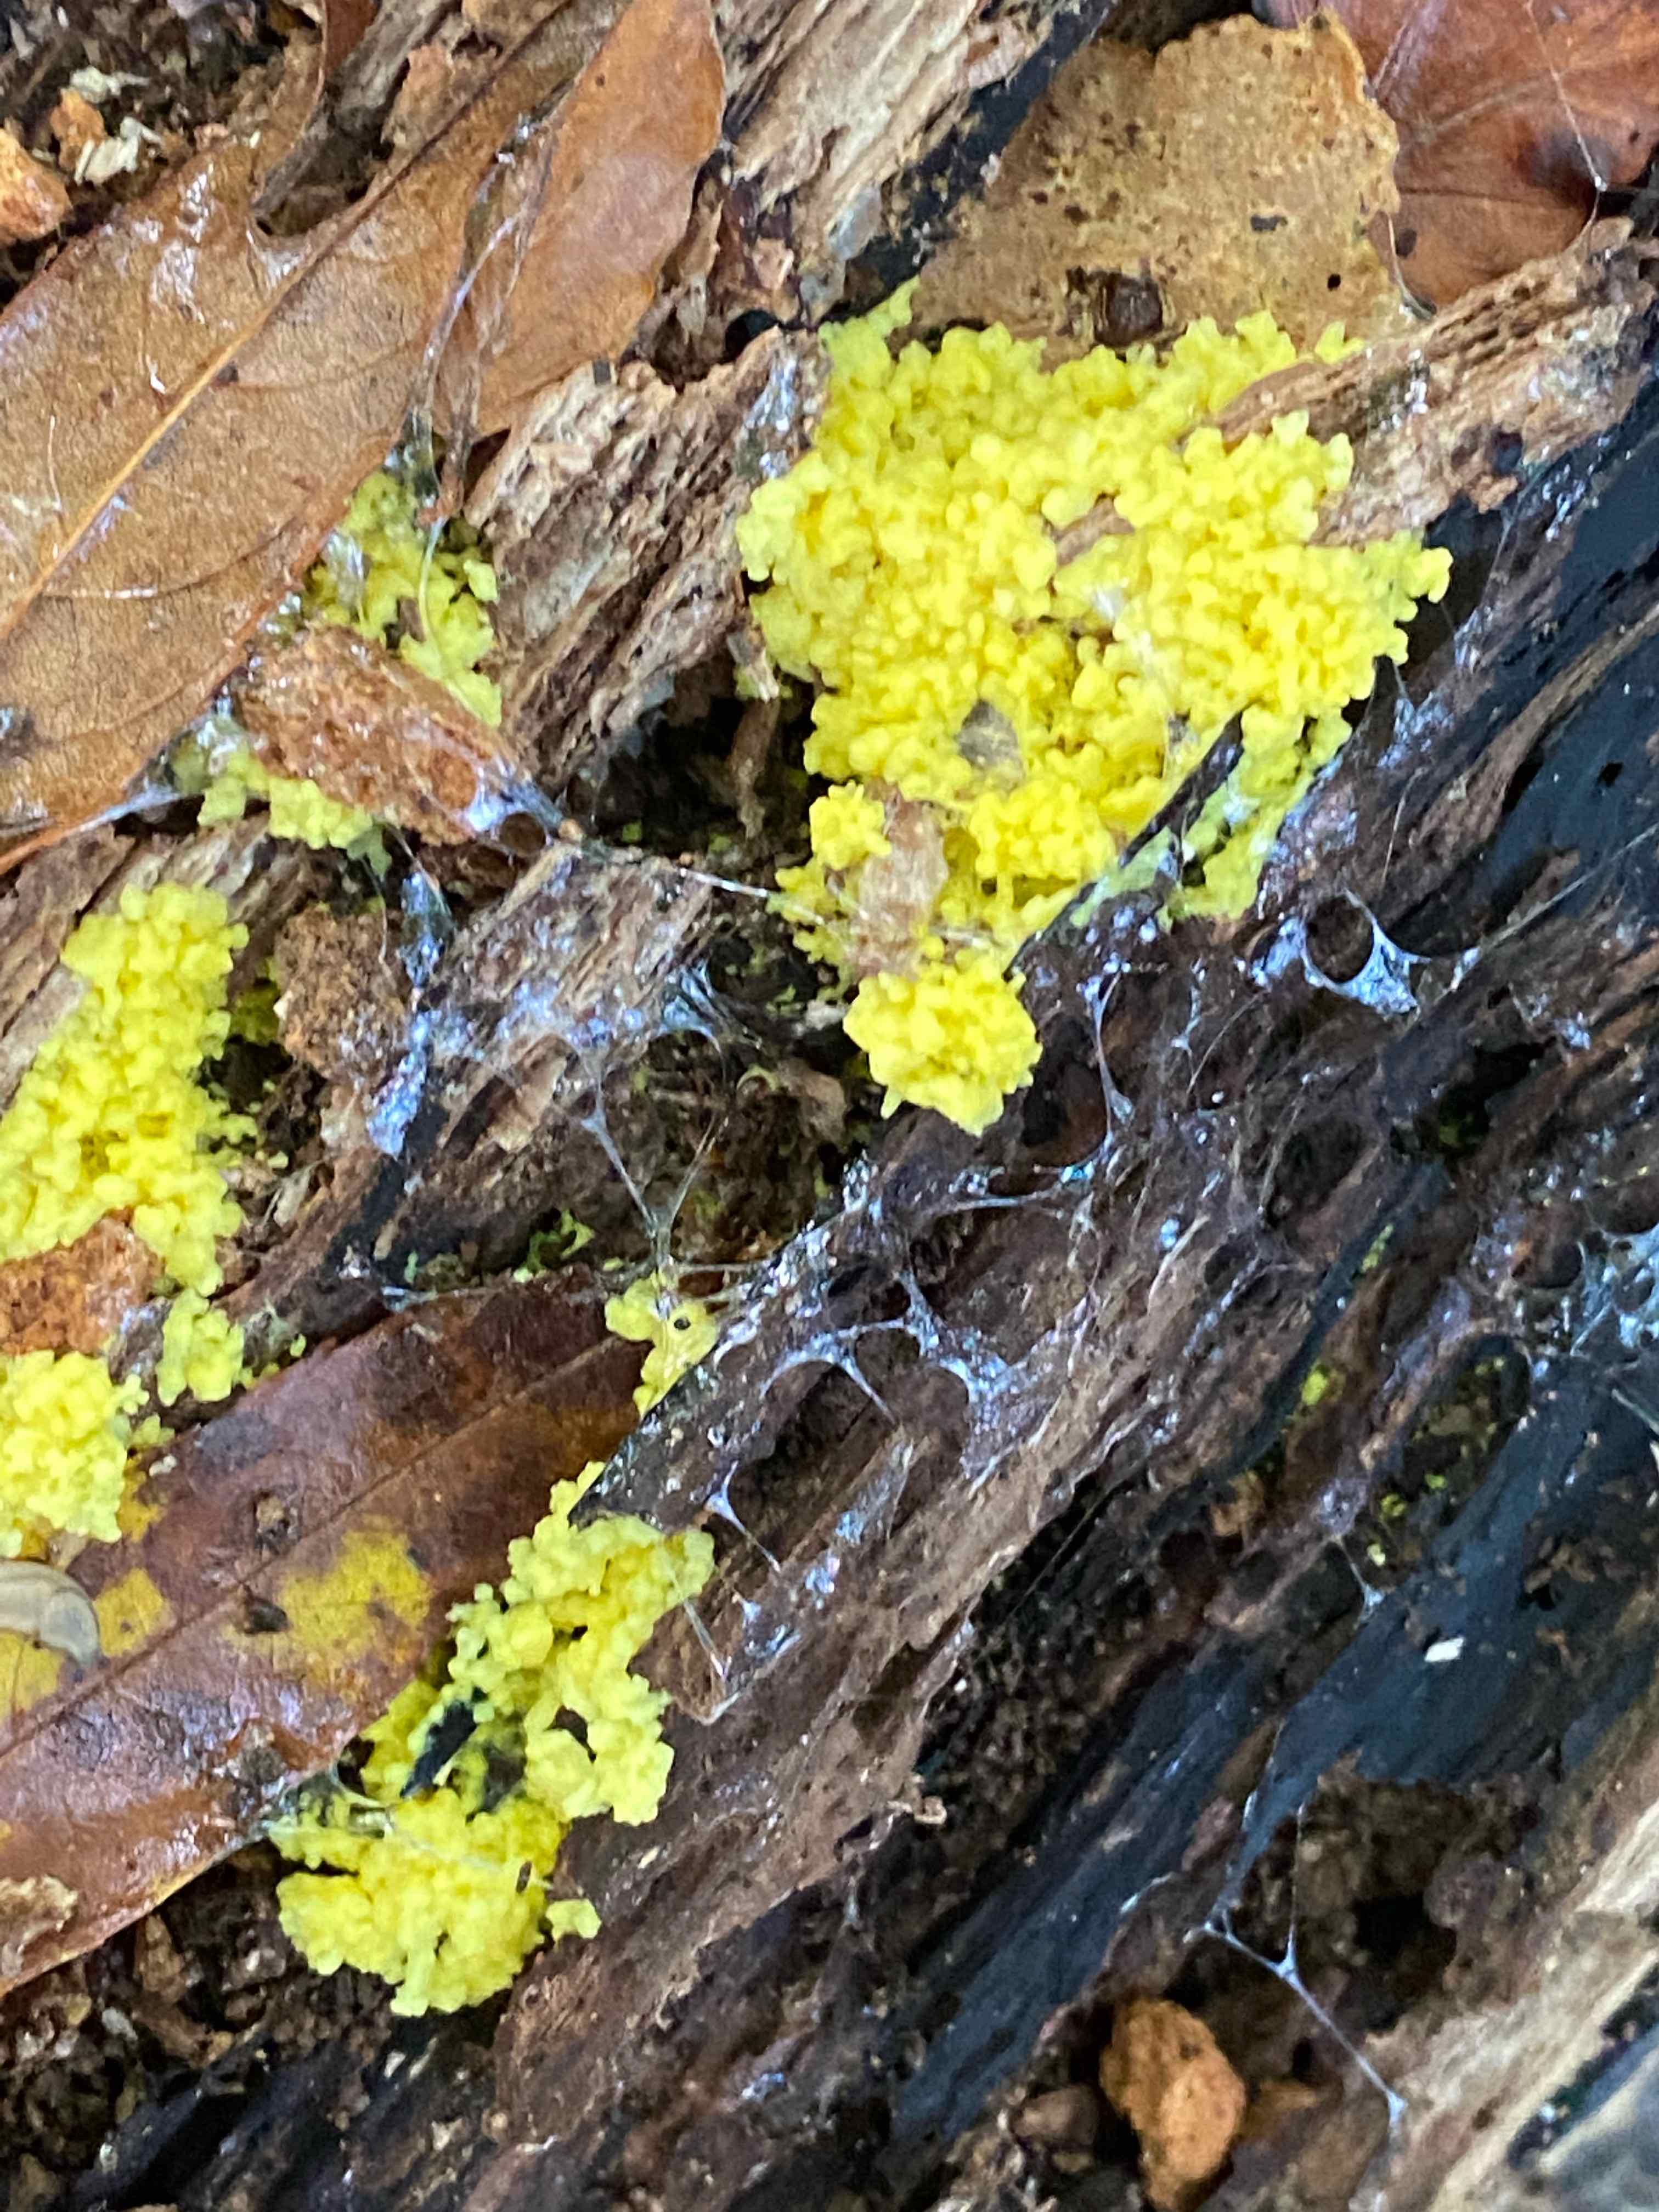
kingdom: Protozoa
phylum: Mycetozoa
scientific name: Mycetozoa
